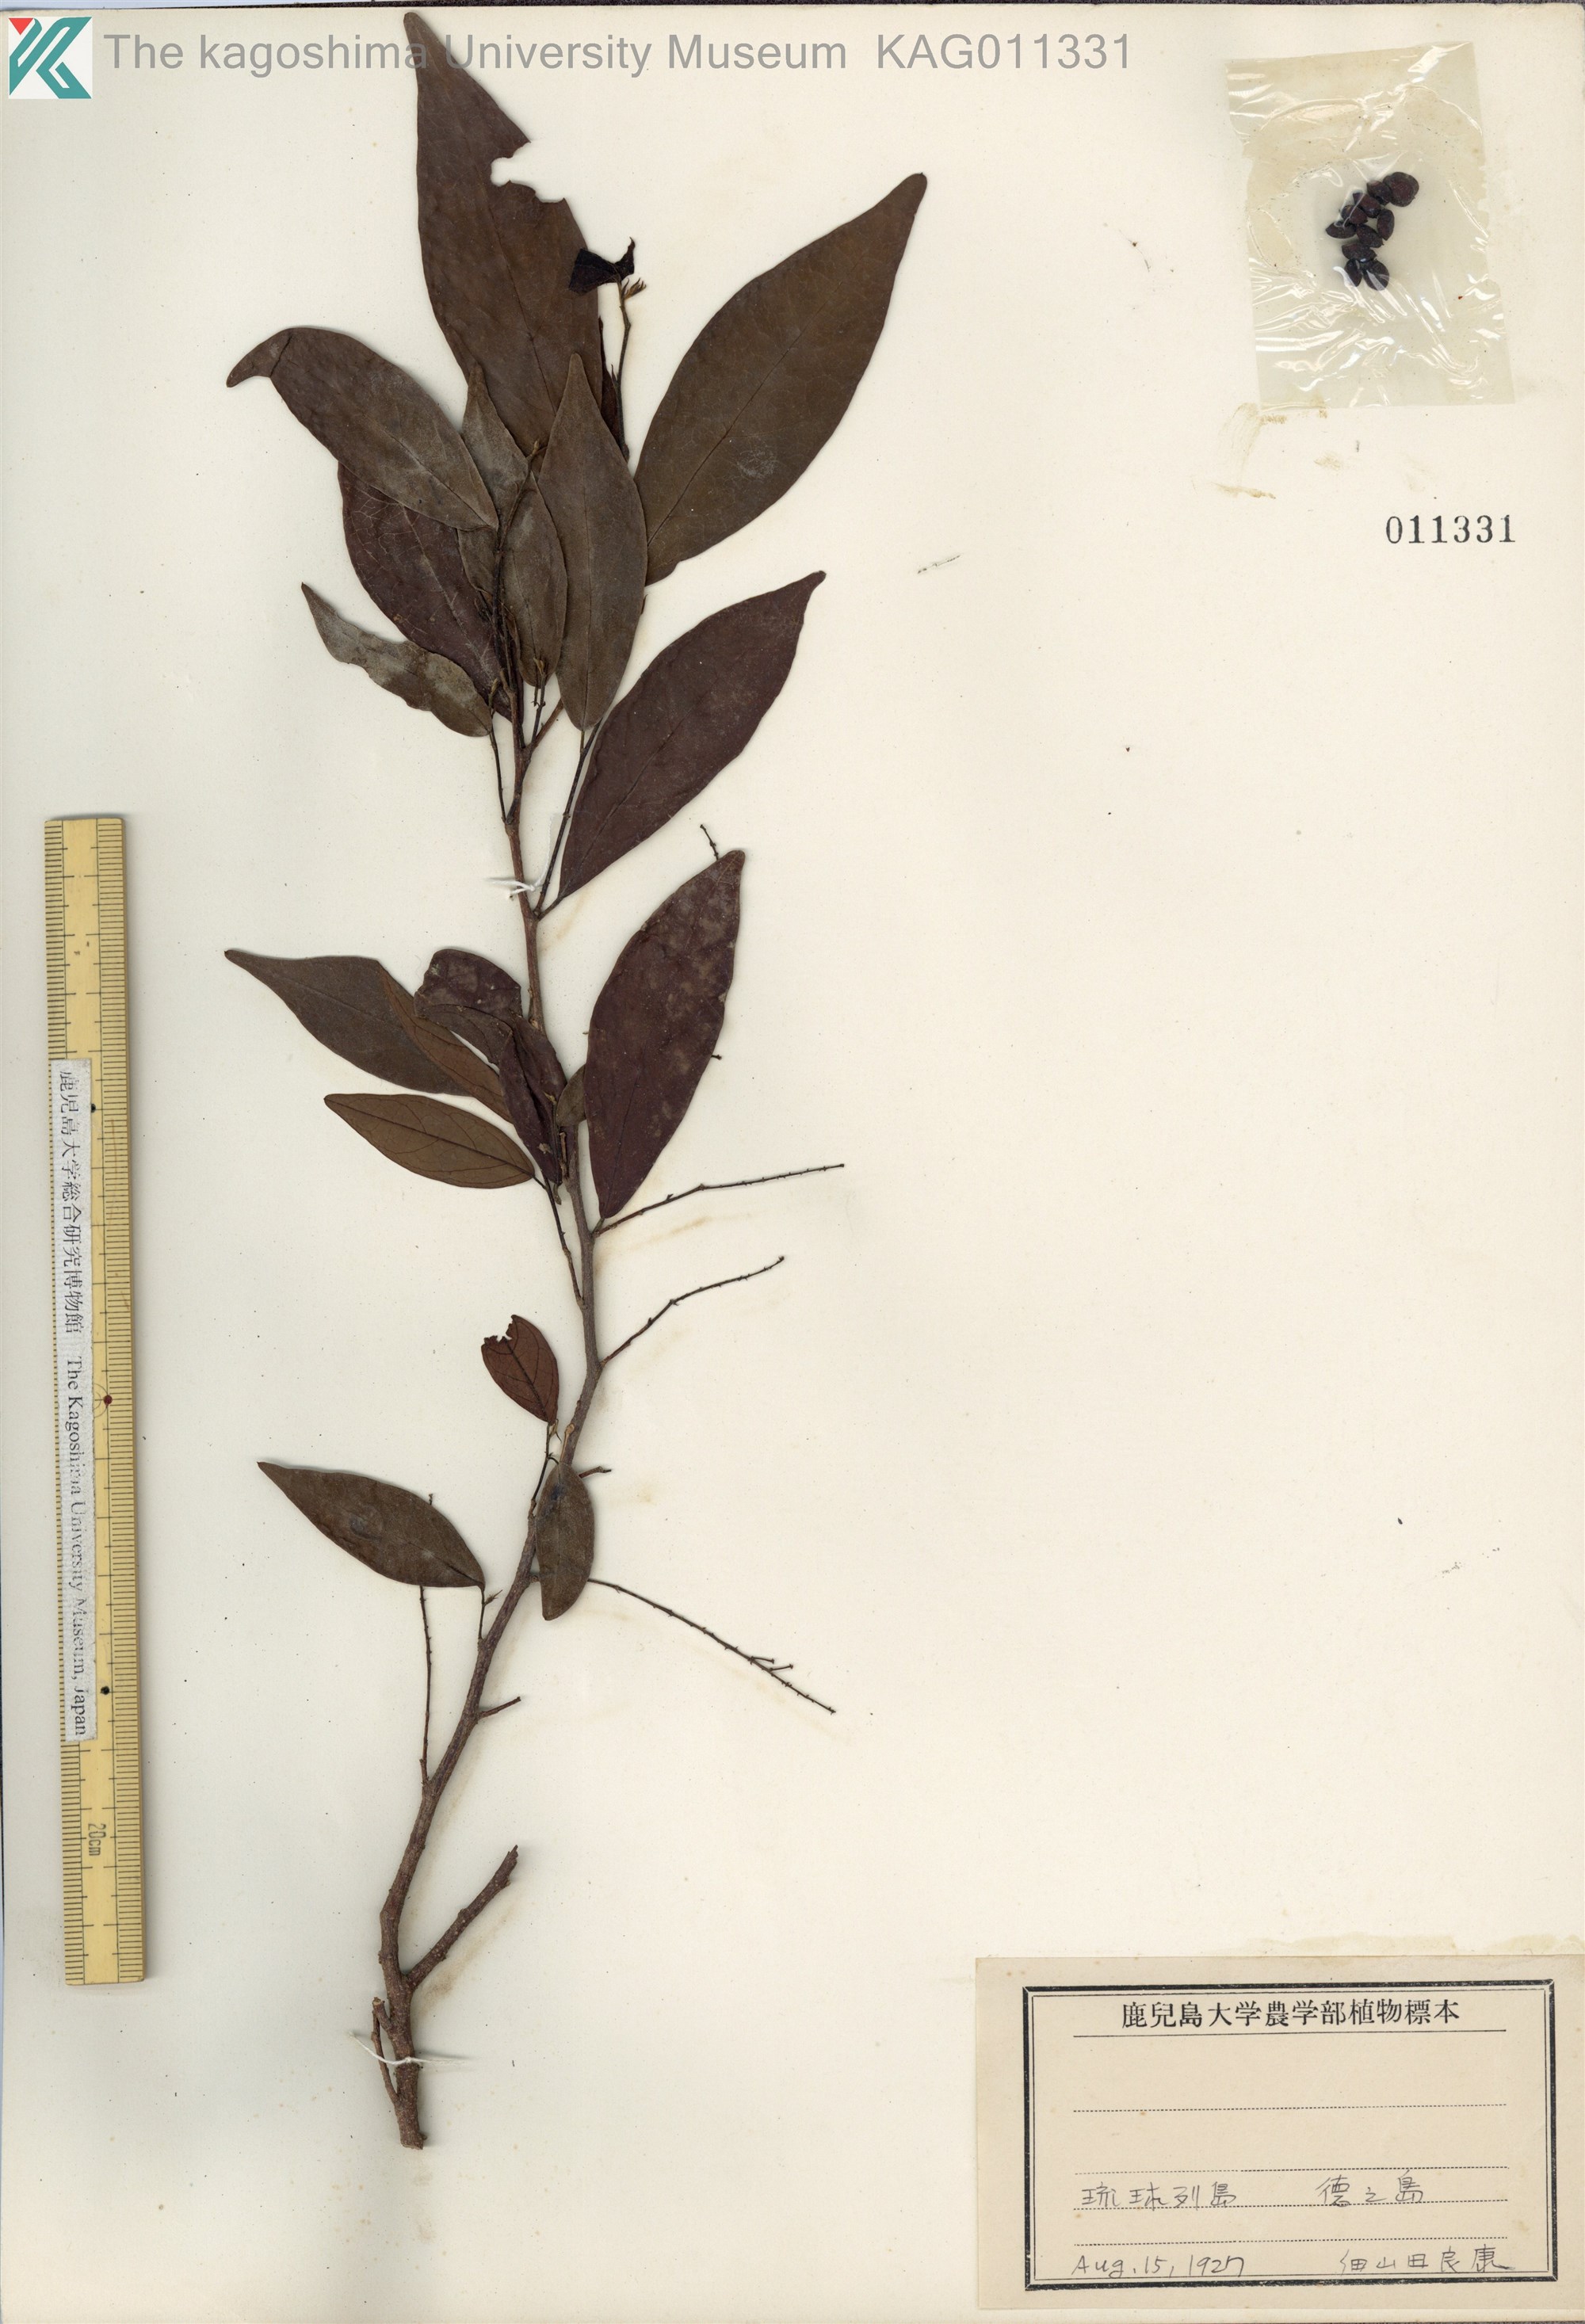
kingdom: Plantae
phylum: Tracheophyta
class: Magnoliopsida
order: Malpighiales
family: Phyllanthaceae
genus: Antidesma
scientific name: Antidesma japonicum
